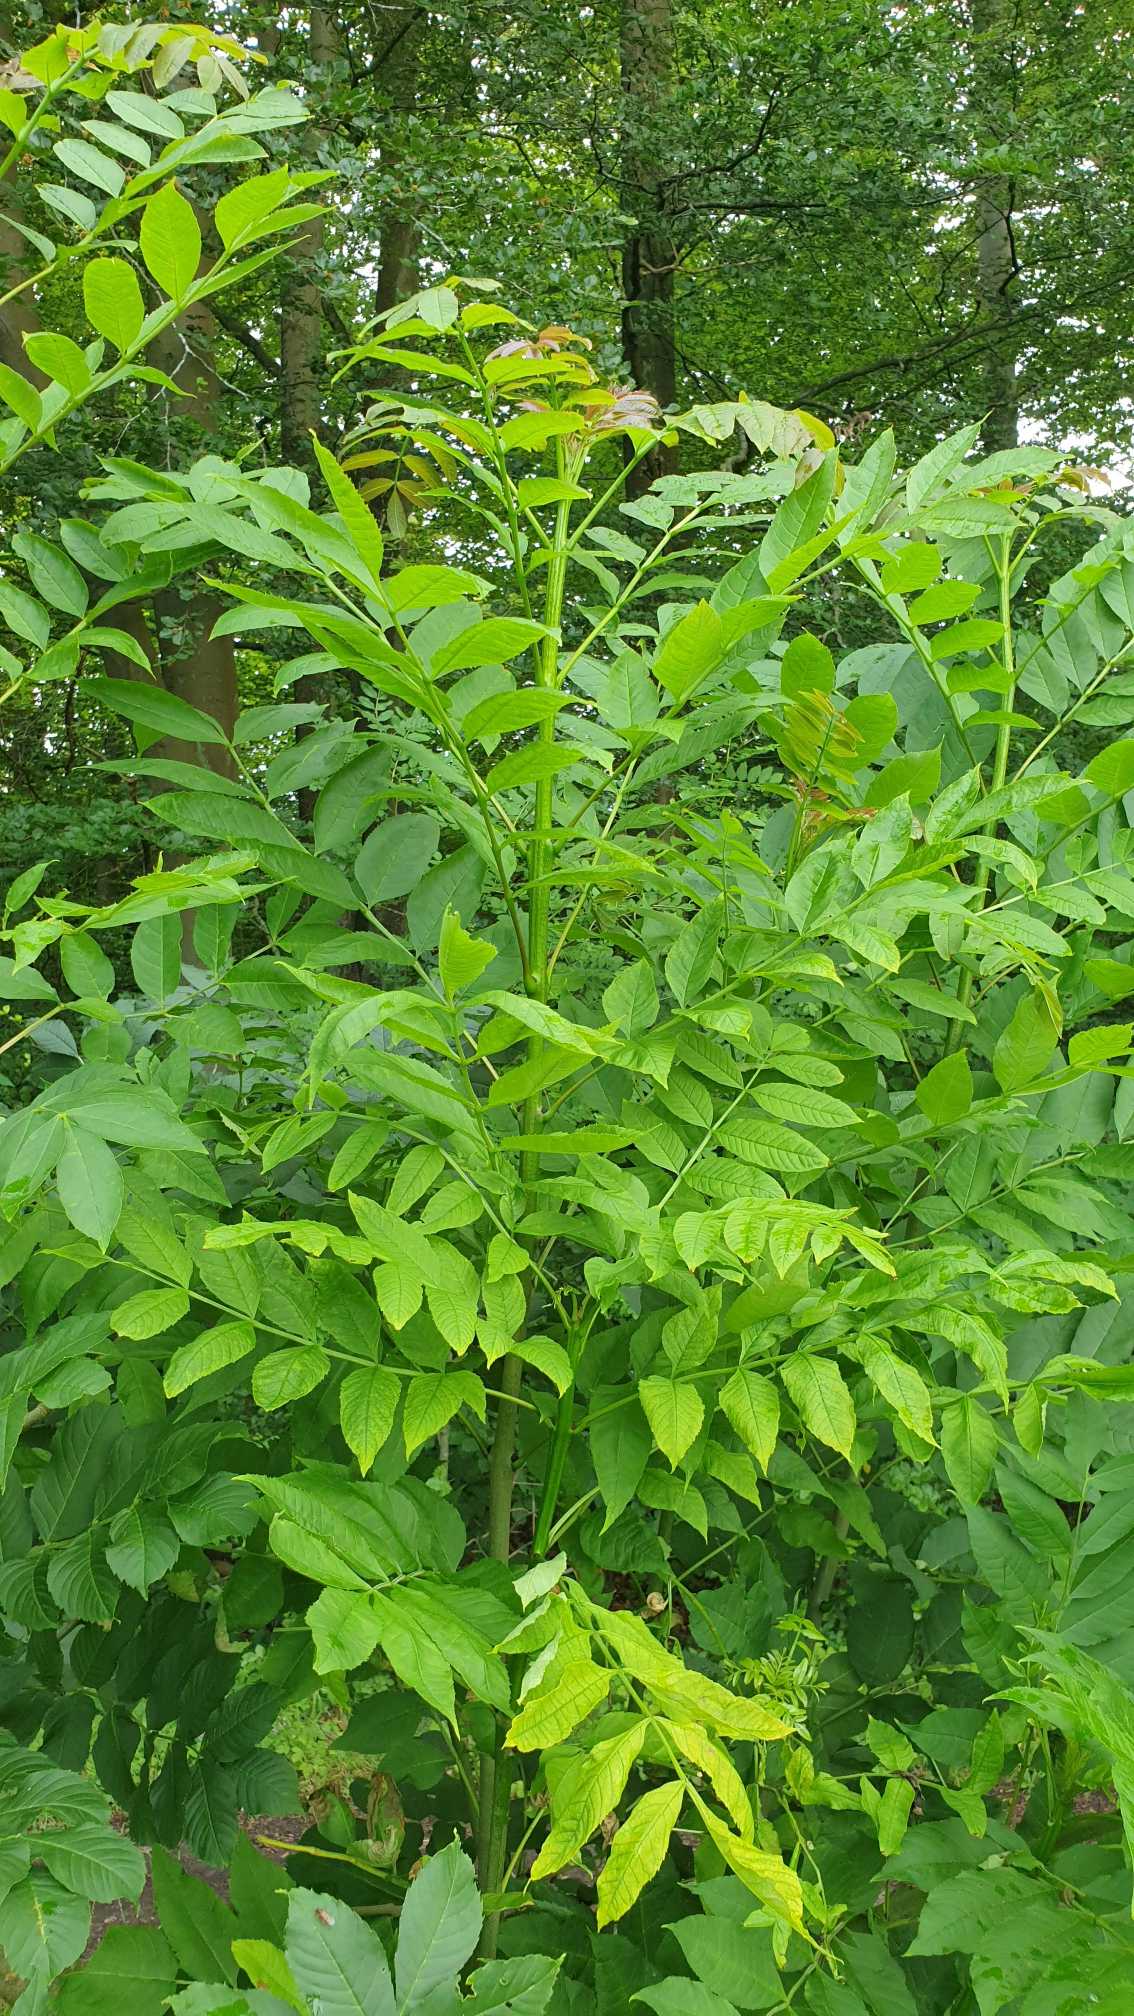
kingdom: Plantae
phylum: Tracheophyta
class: Magnoliopsida
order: Lamiales
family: Oleaceae
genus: Fraxinus
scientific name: Fraxinus excelsior
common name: Ask
